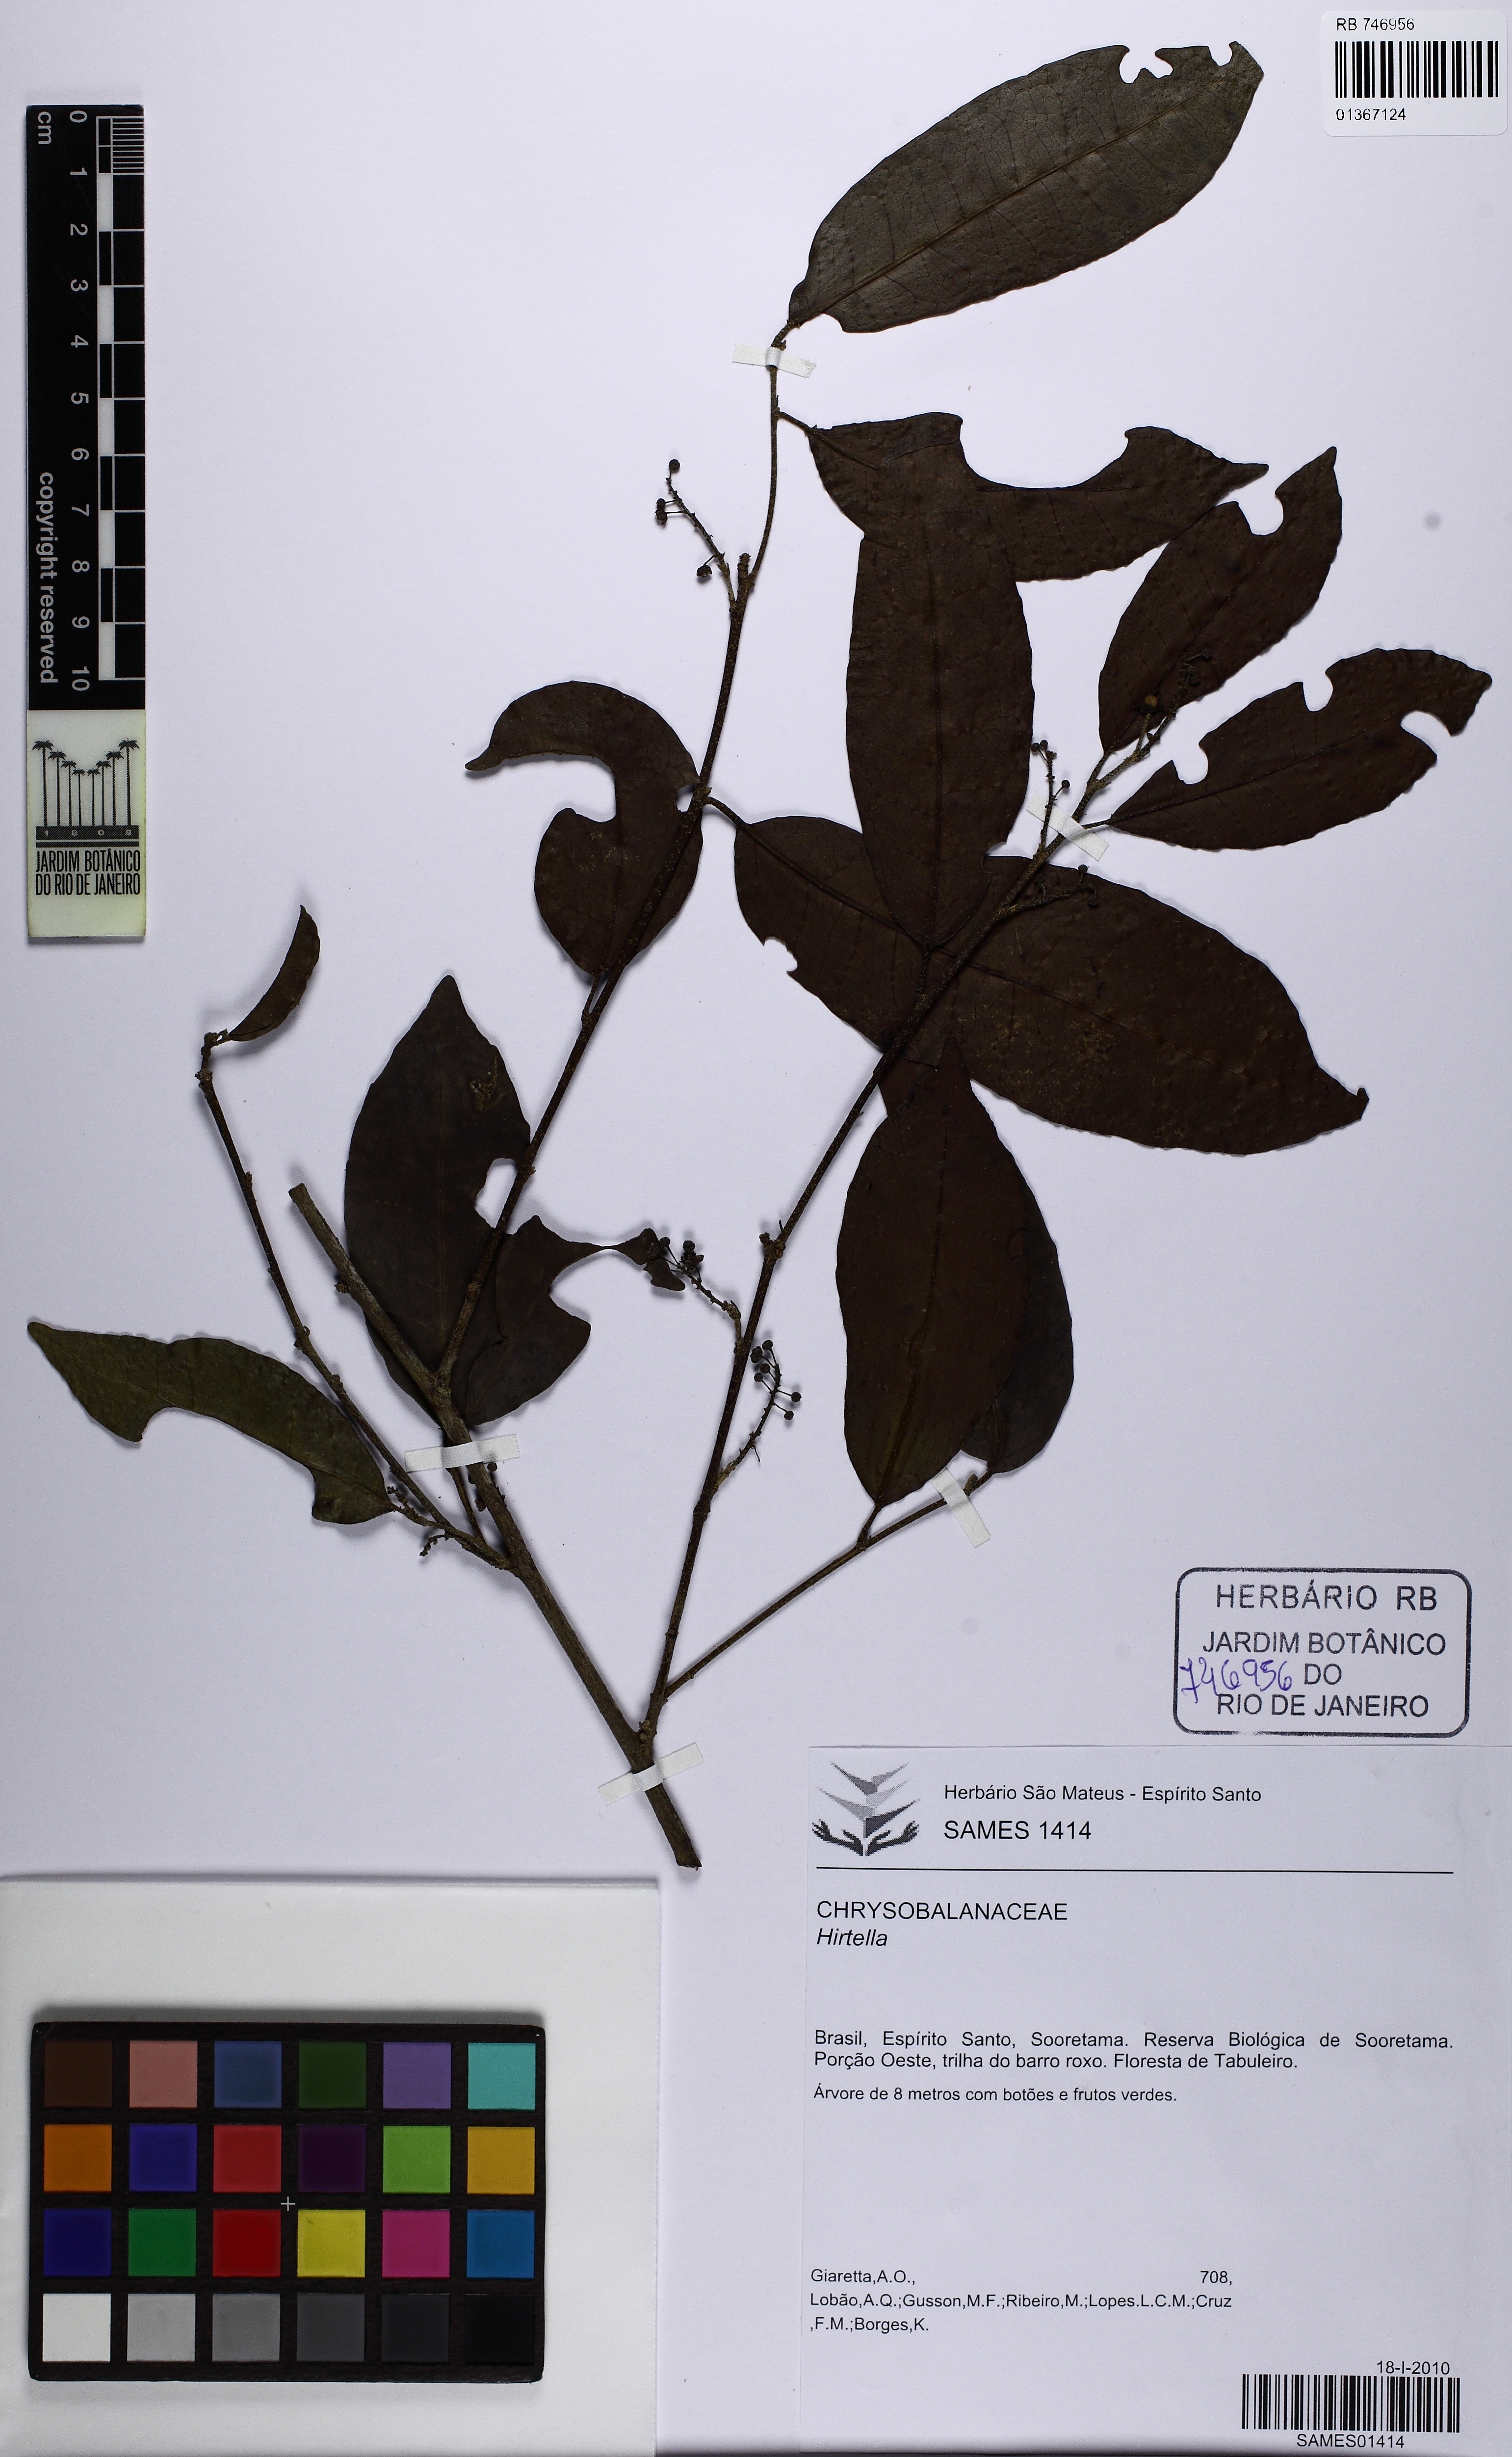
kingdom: Plantae
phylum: Tracheophyta
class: Magnoliopsida
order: Malpighiales
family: Euphorbiaceae
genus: Croton
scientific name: Croton polyandrus
